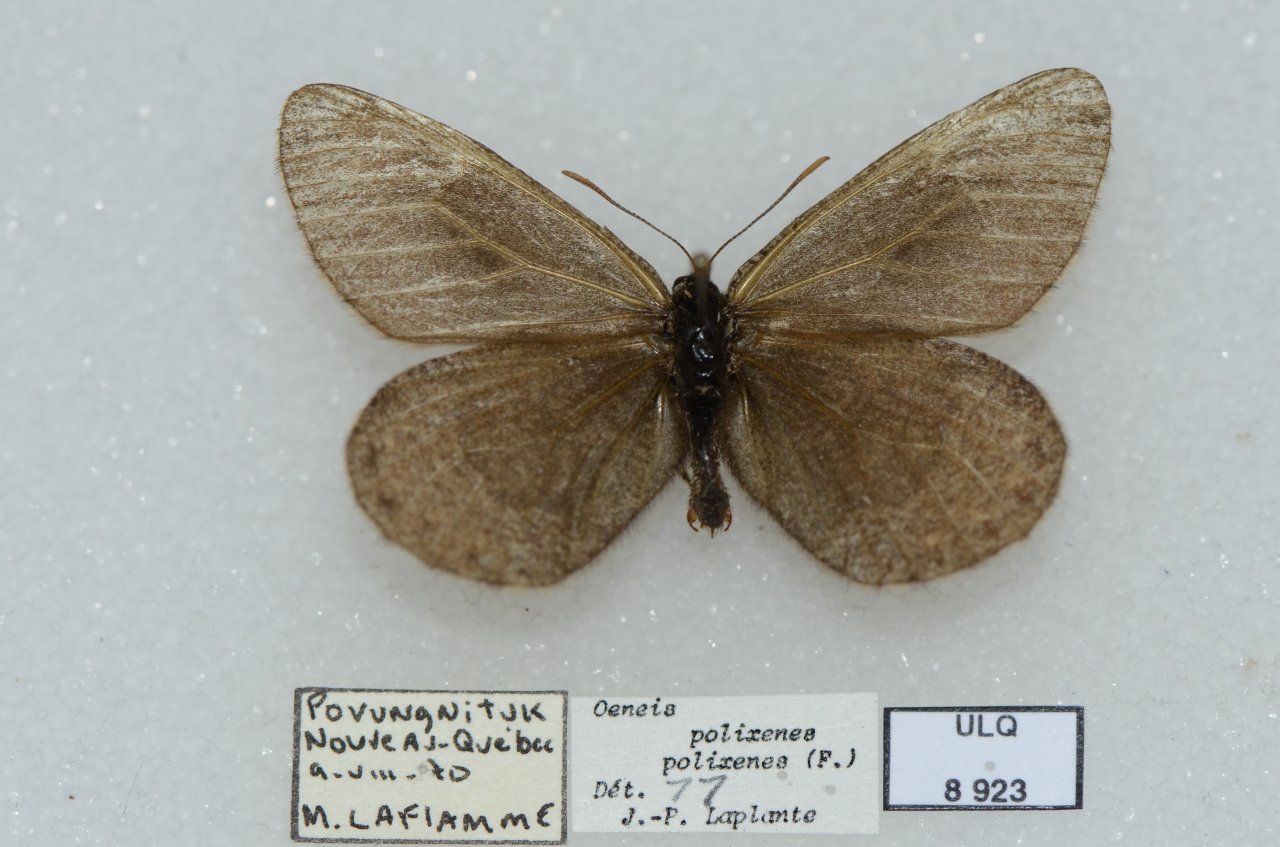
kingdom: Animalia
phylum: Arthropoda
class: Insecta
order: Lepidoptera
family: Nymphalidae
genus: Oeneis
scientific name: Oeneis bore
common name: Polixenes Arctic
